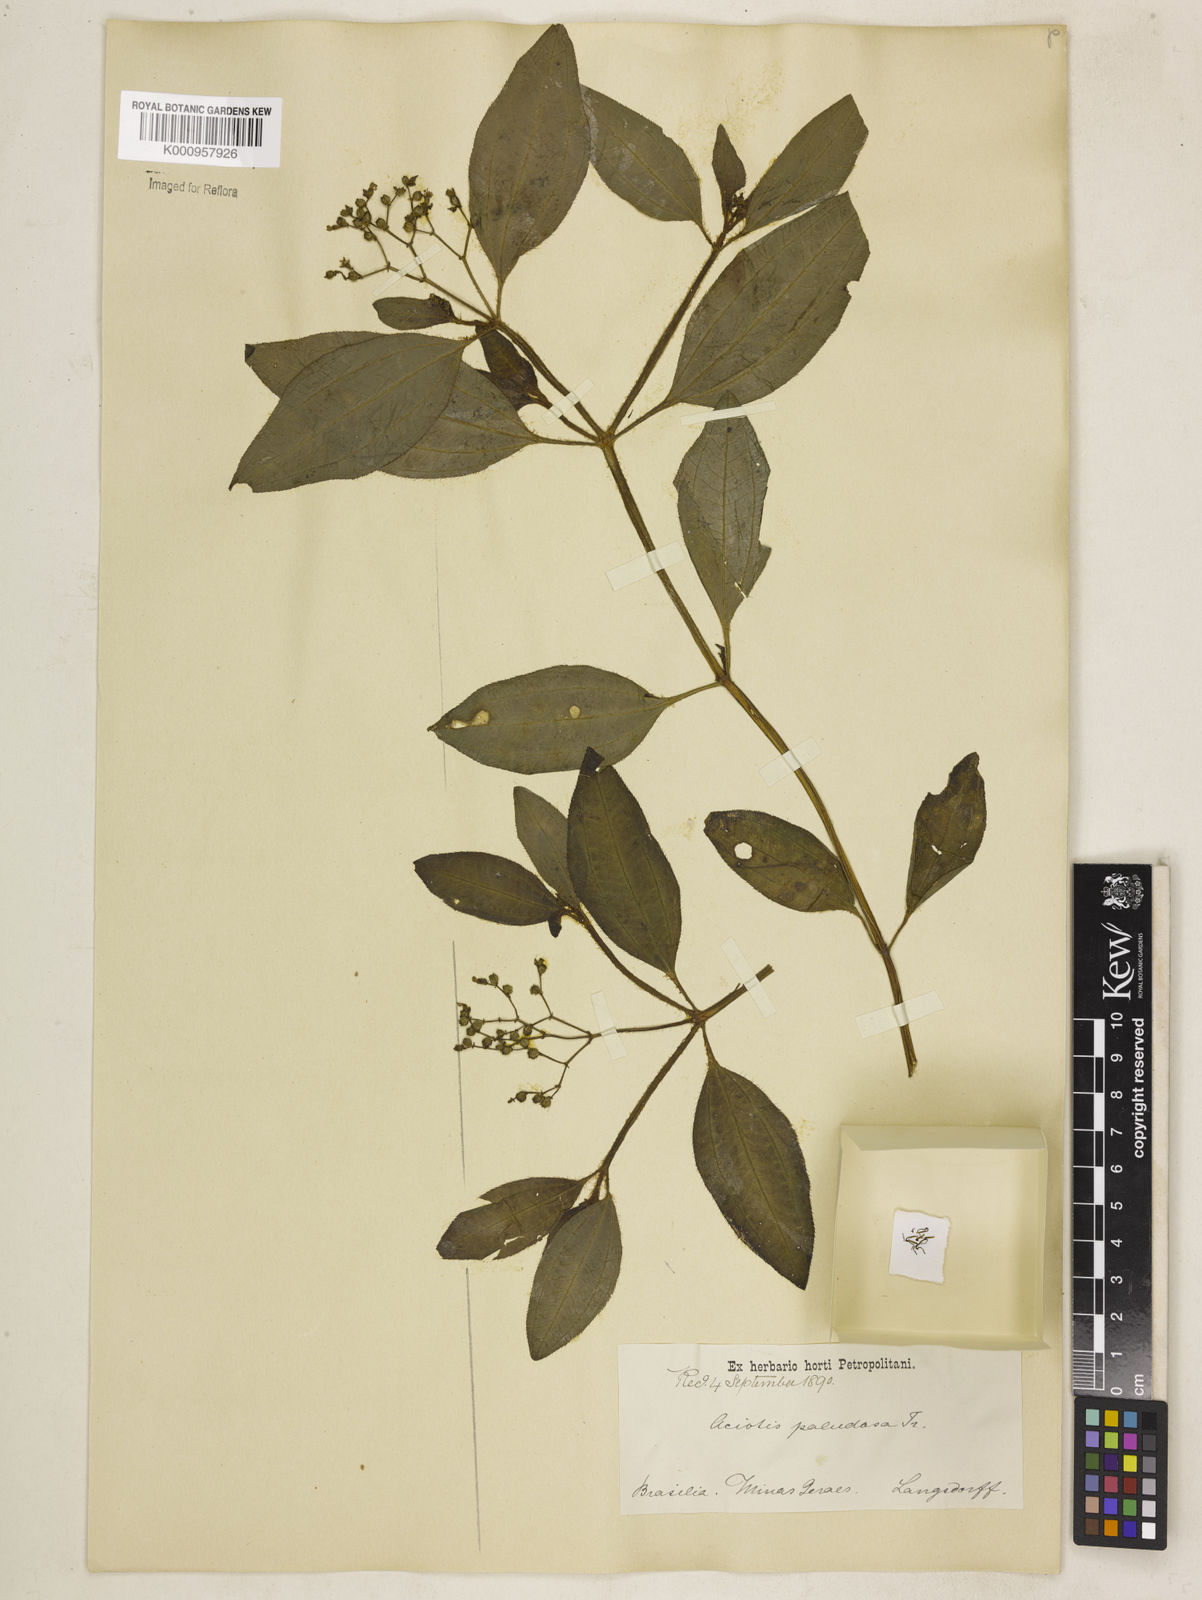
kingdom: Plantae
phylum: Tracheophyta
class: Magnoliopsida
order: Myrtales
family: Melastomataceae
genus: Aciotis
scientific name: Aciotis paludosa
